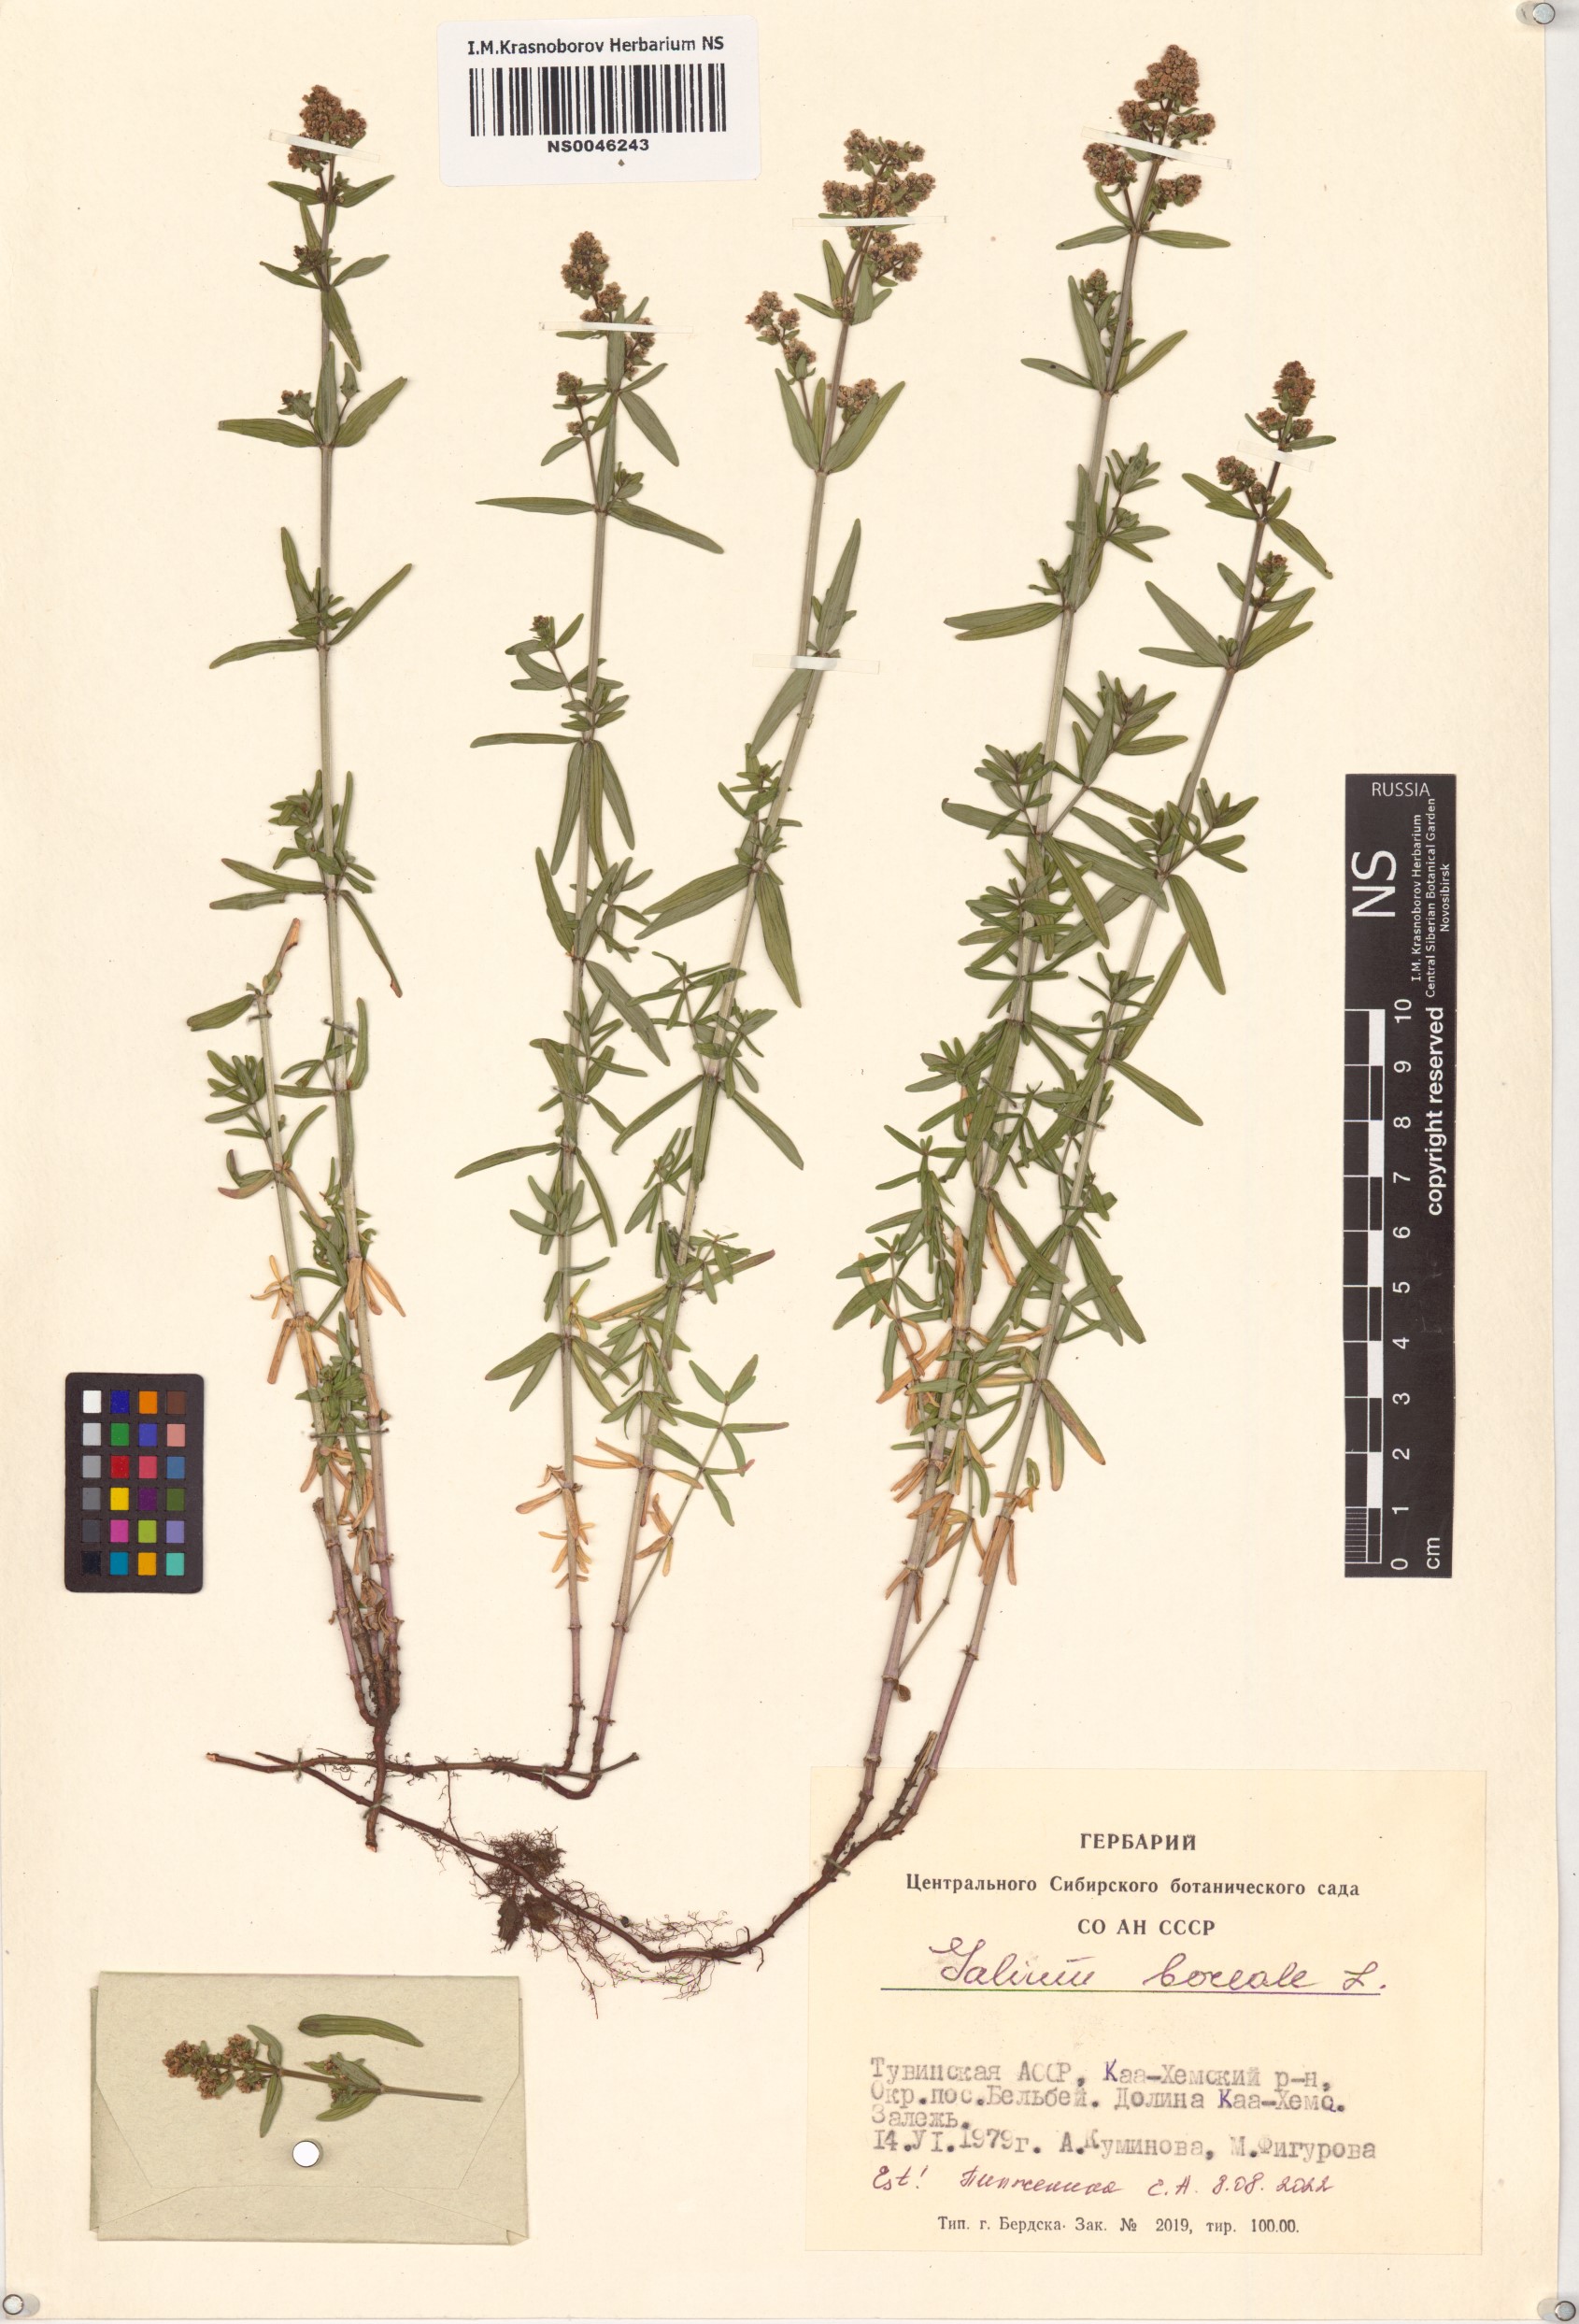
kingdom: Plantae
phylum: Tracheophyta
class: Magnoliopsida
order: Gentianales
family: Rubiaceae
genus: Galium
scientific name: Galium boreale
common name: Northern bedstraw
